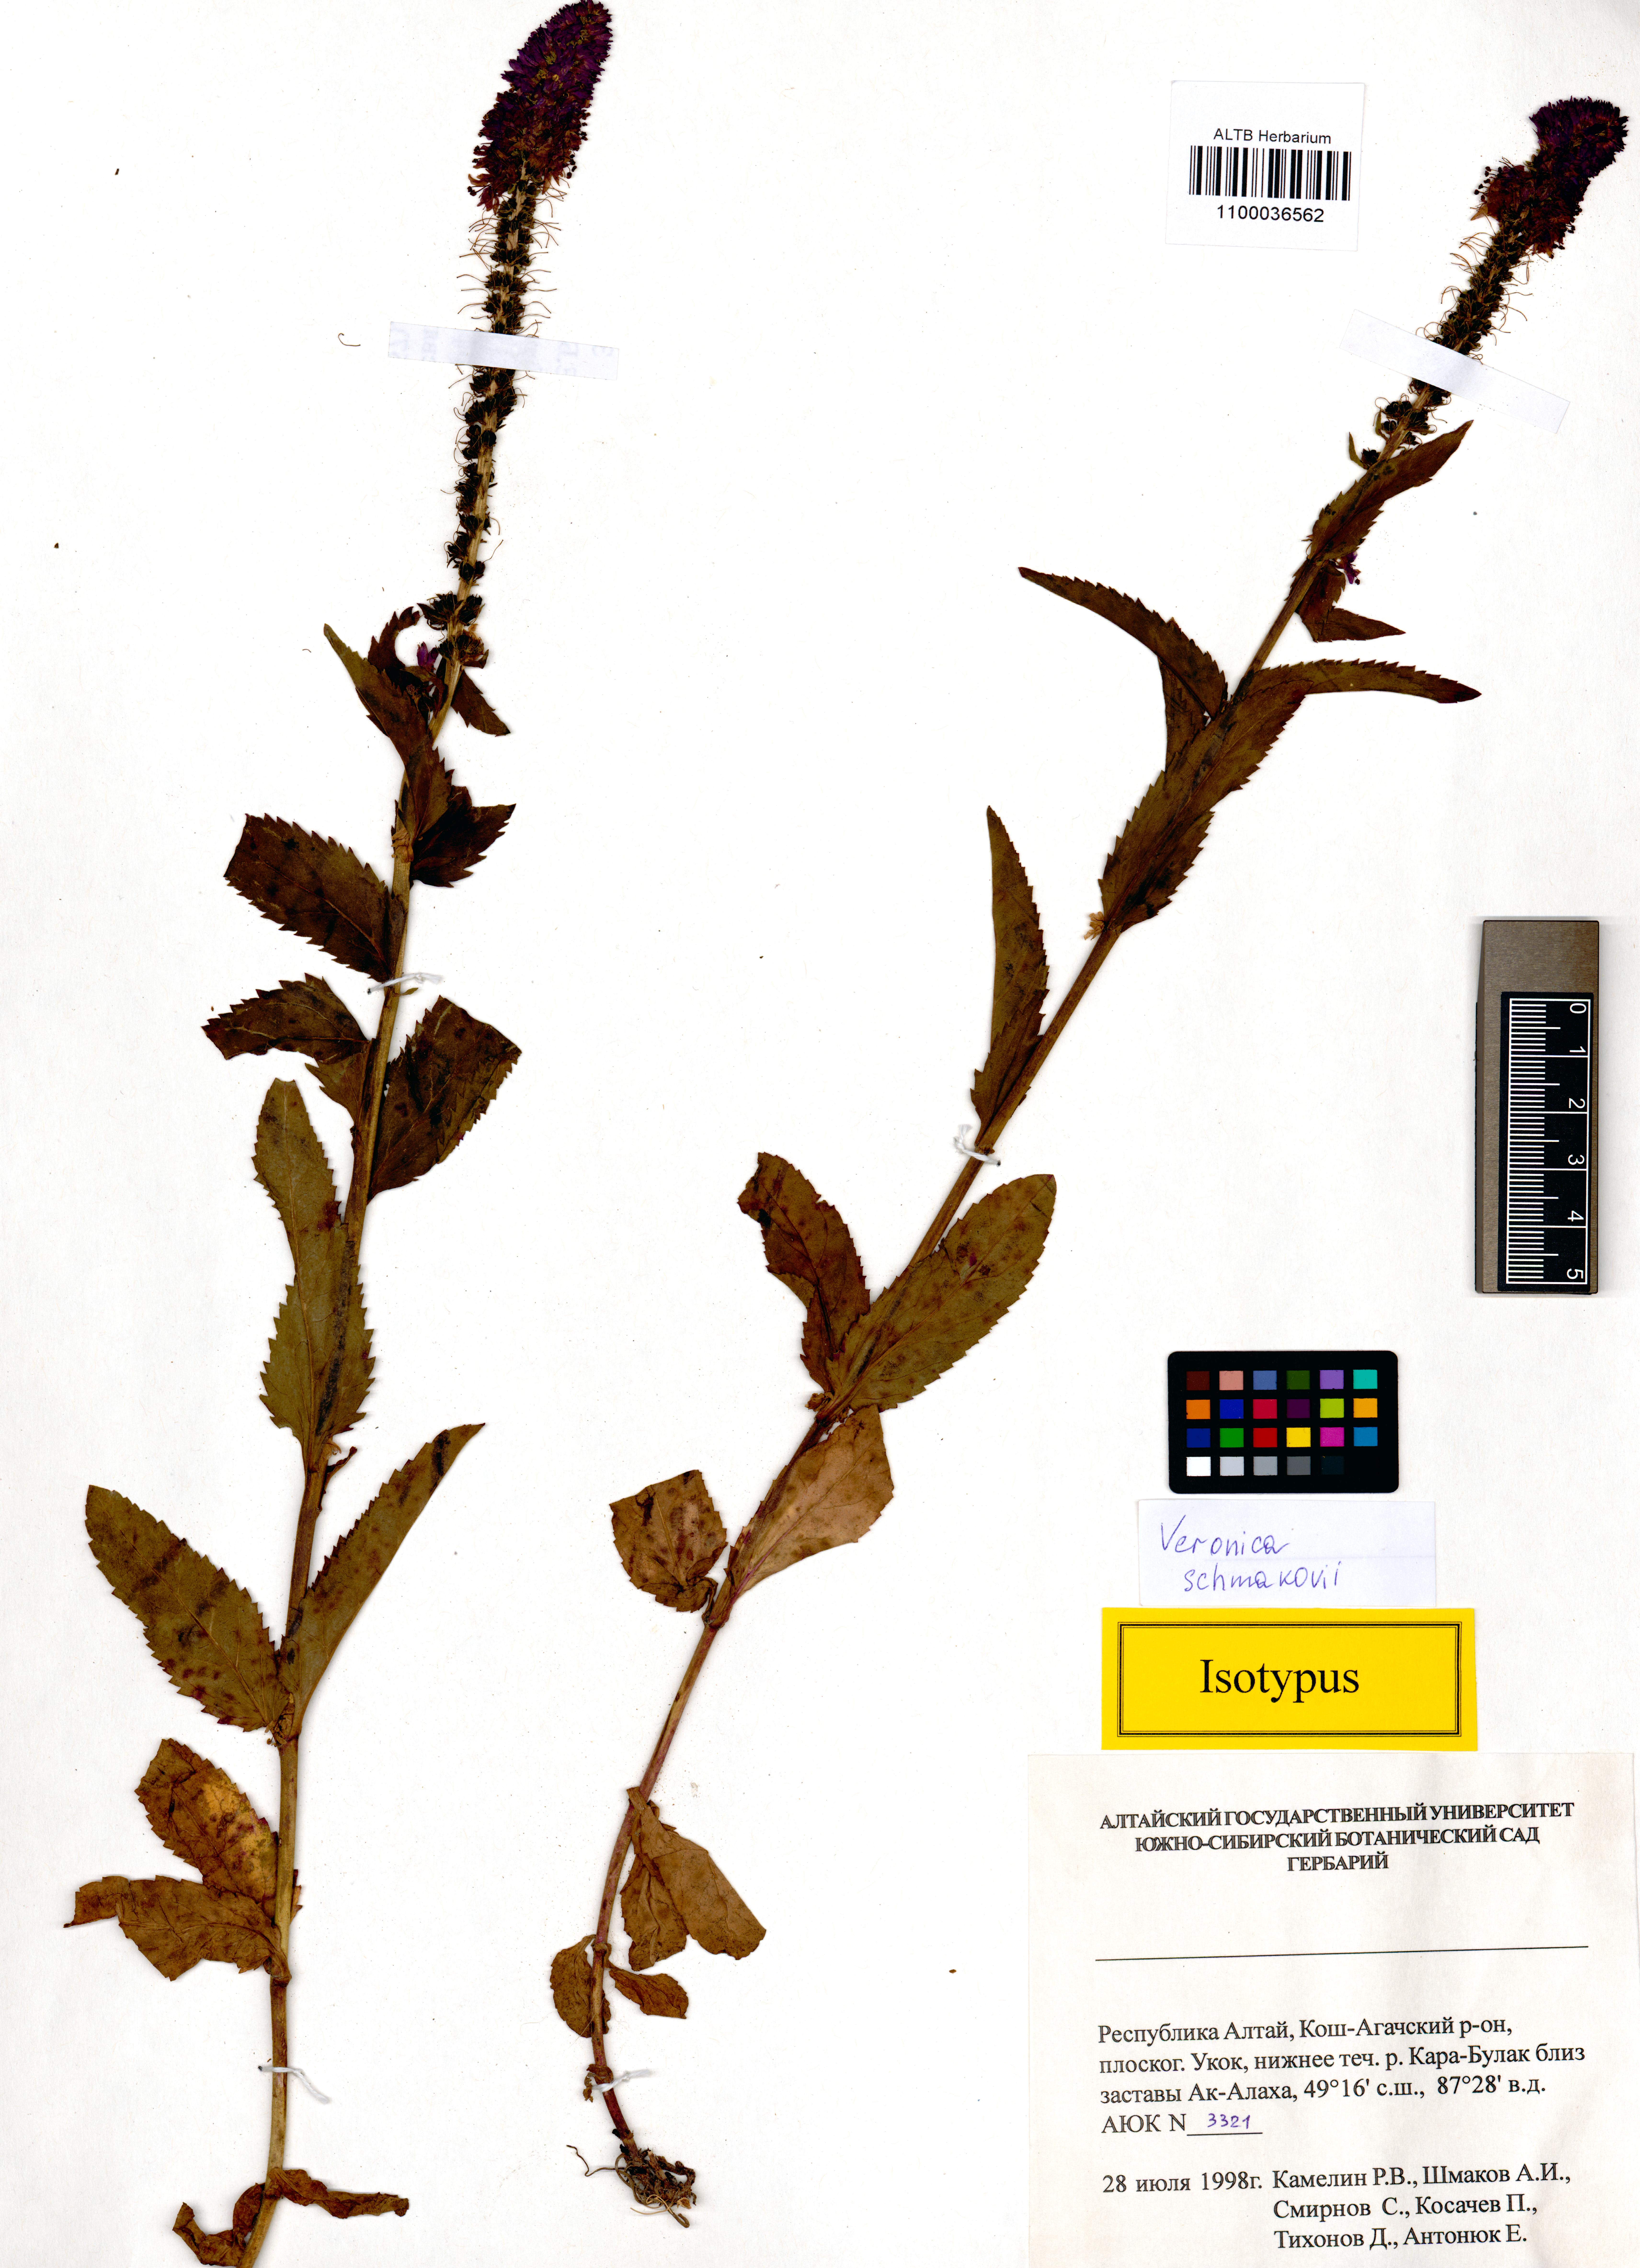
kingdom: Plantae
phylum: Tracheophyta
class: Magnoliopsida
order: Lamiales
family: Plantaginaceae
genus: Veronica
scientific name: Veronica schmakovii
